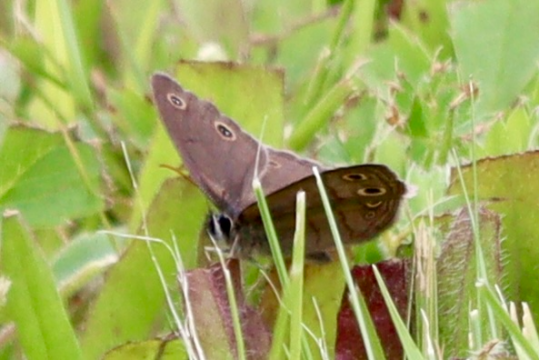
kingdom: Animalia
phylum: Arthropoda
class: Insecta
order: Lepidoptera
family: Nymphalidae
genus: Euptychia
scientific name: Euptychia cymela
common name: Little Wood Satyr
